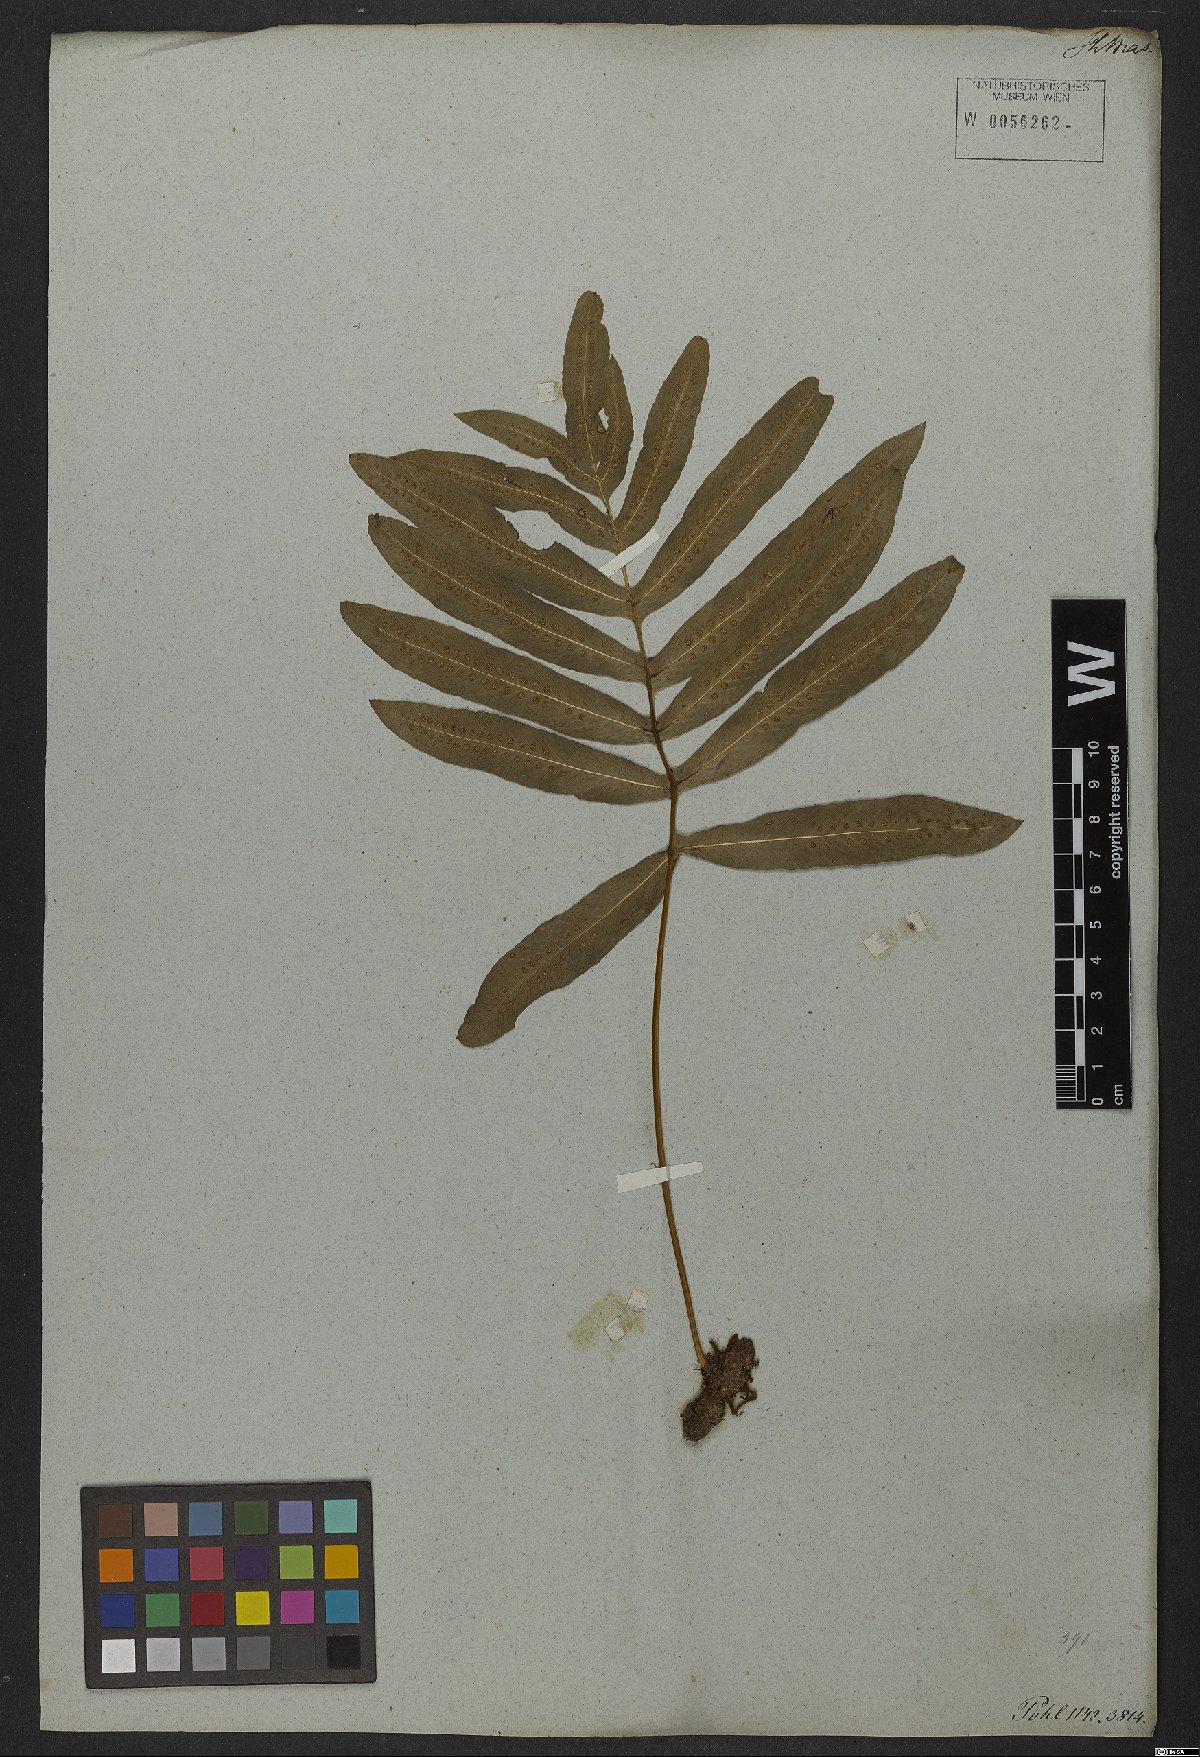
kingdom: Plantae
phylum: Tracheophyta
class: Polypodiopsida
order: Polypodiales
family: Polypodiaceae
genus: Serpocaulon
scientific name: Serpocaulon attenuatum
